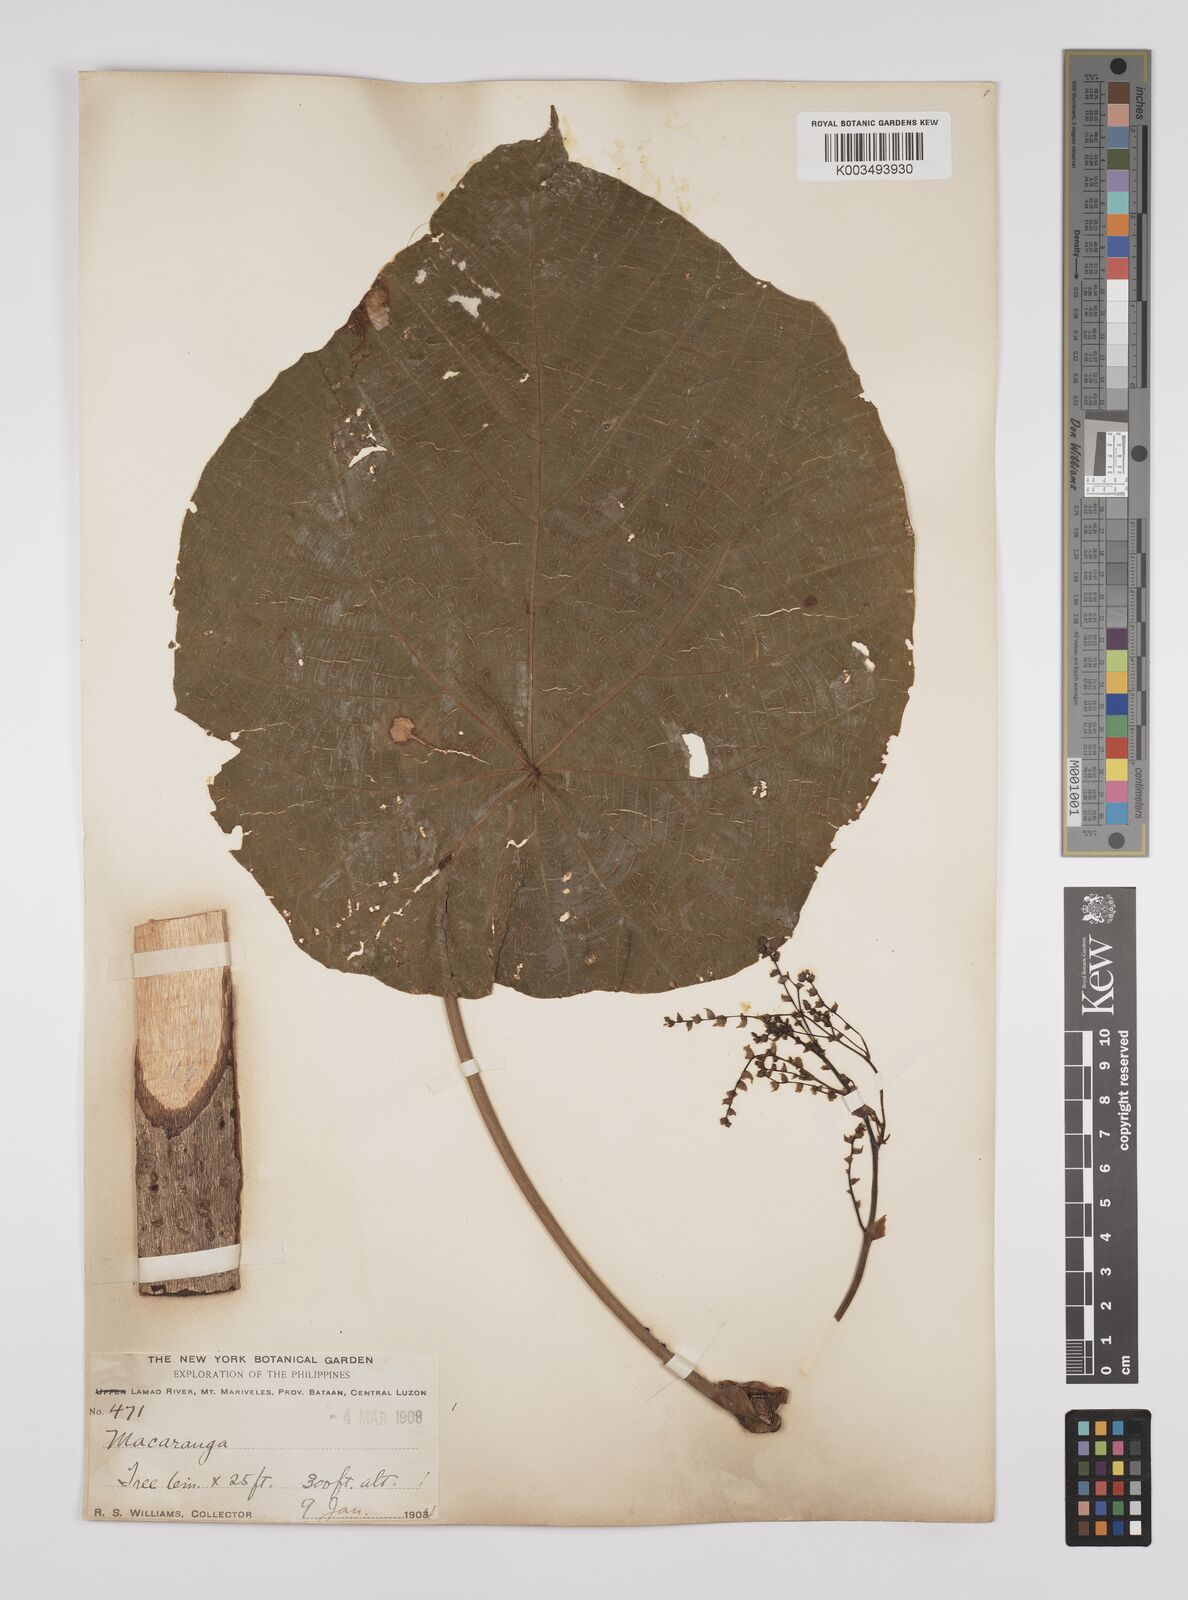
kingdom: Plantae
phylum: Tracheophyta
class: Magnoliopsida
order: Malpighiales
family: Euphorbiaceae
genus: Macaranga
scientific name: Macaranga tanarius
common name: Parasol leaf tree
